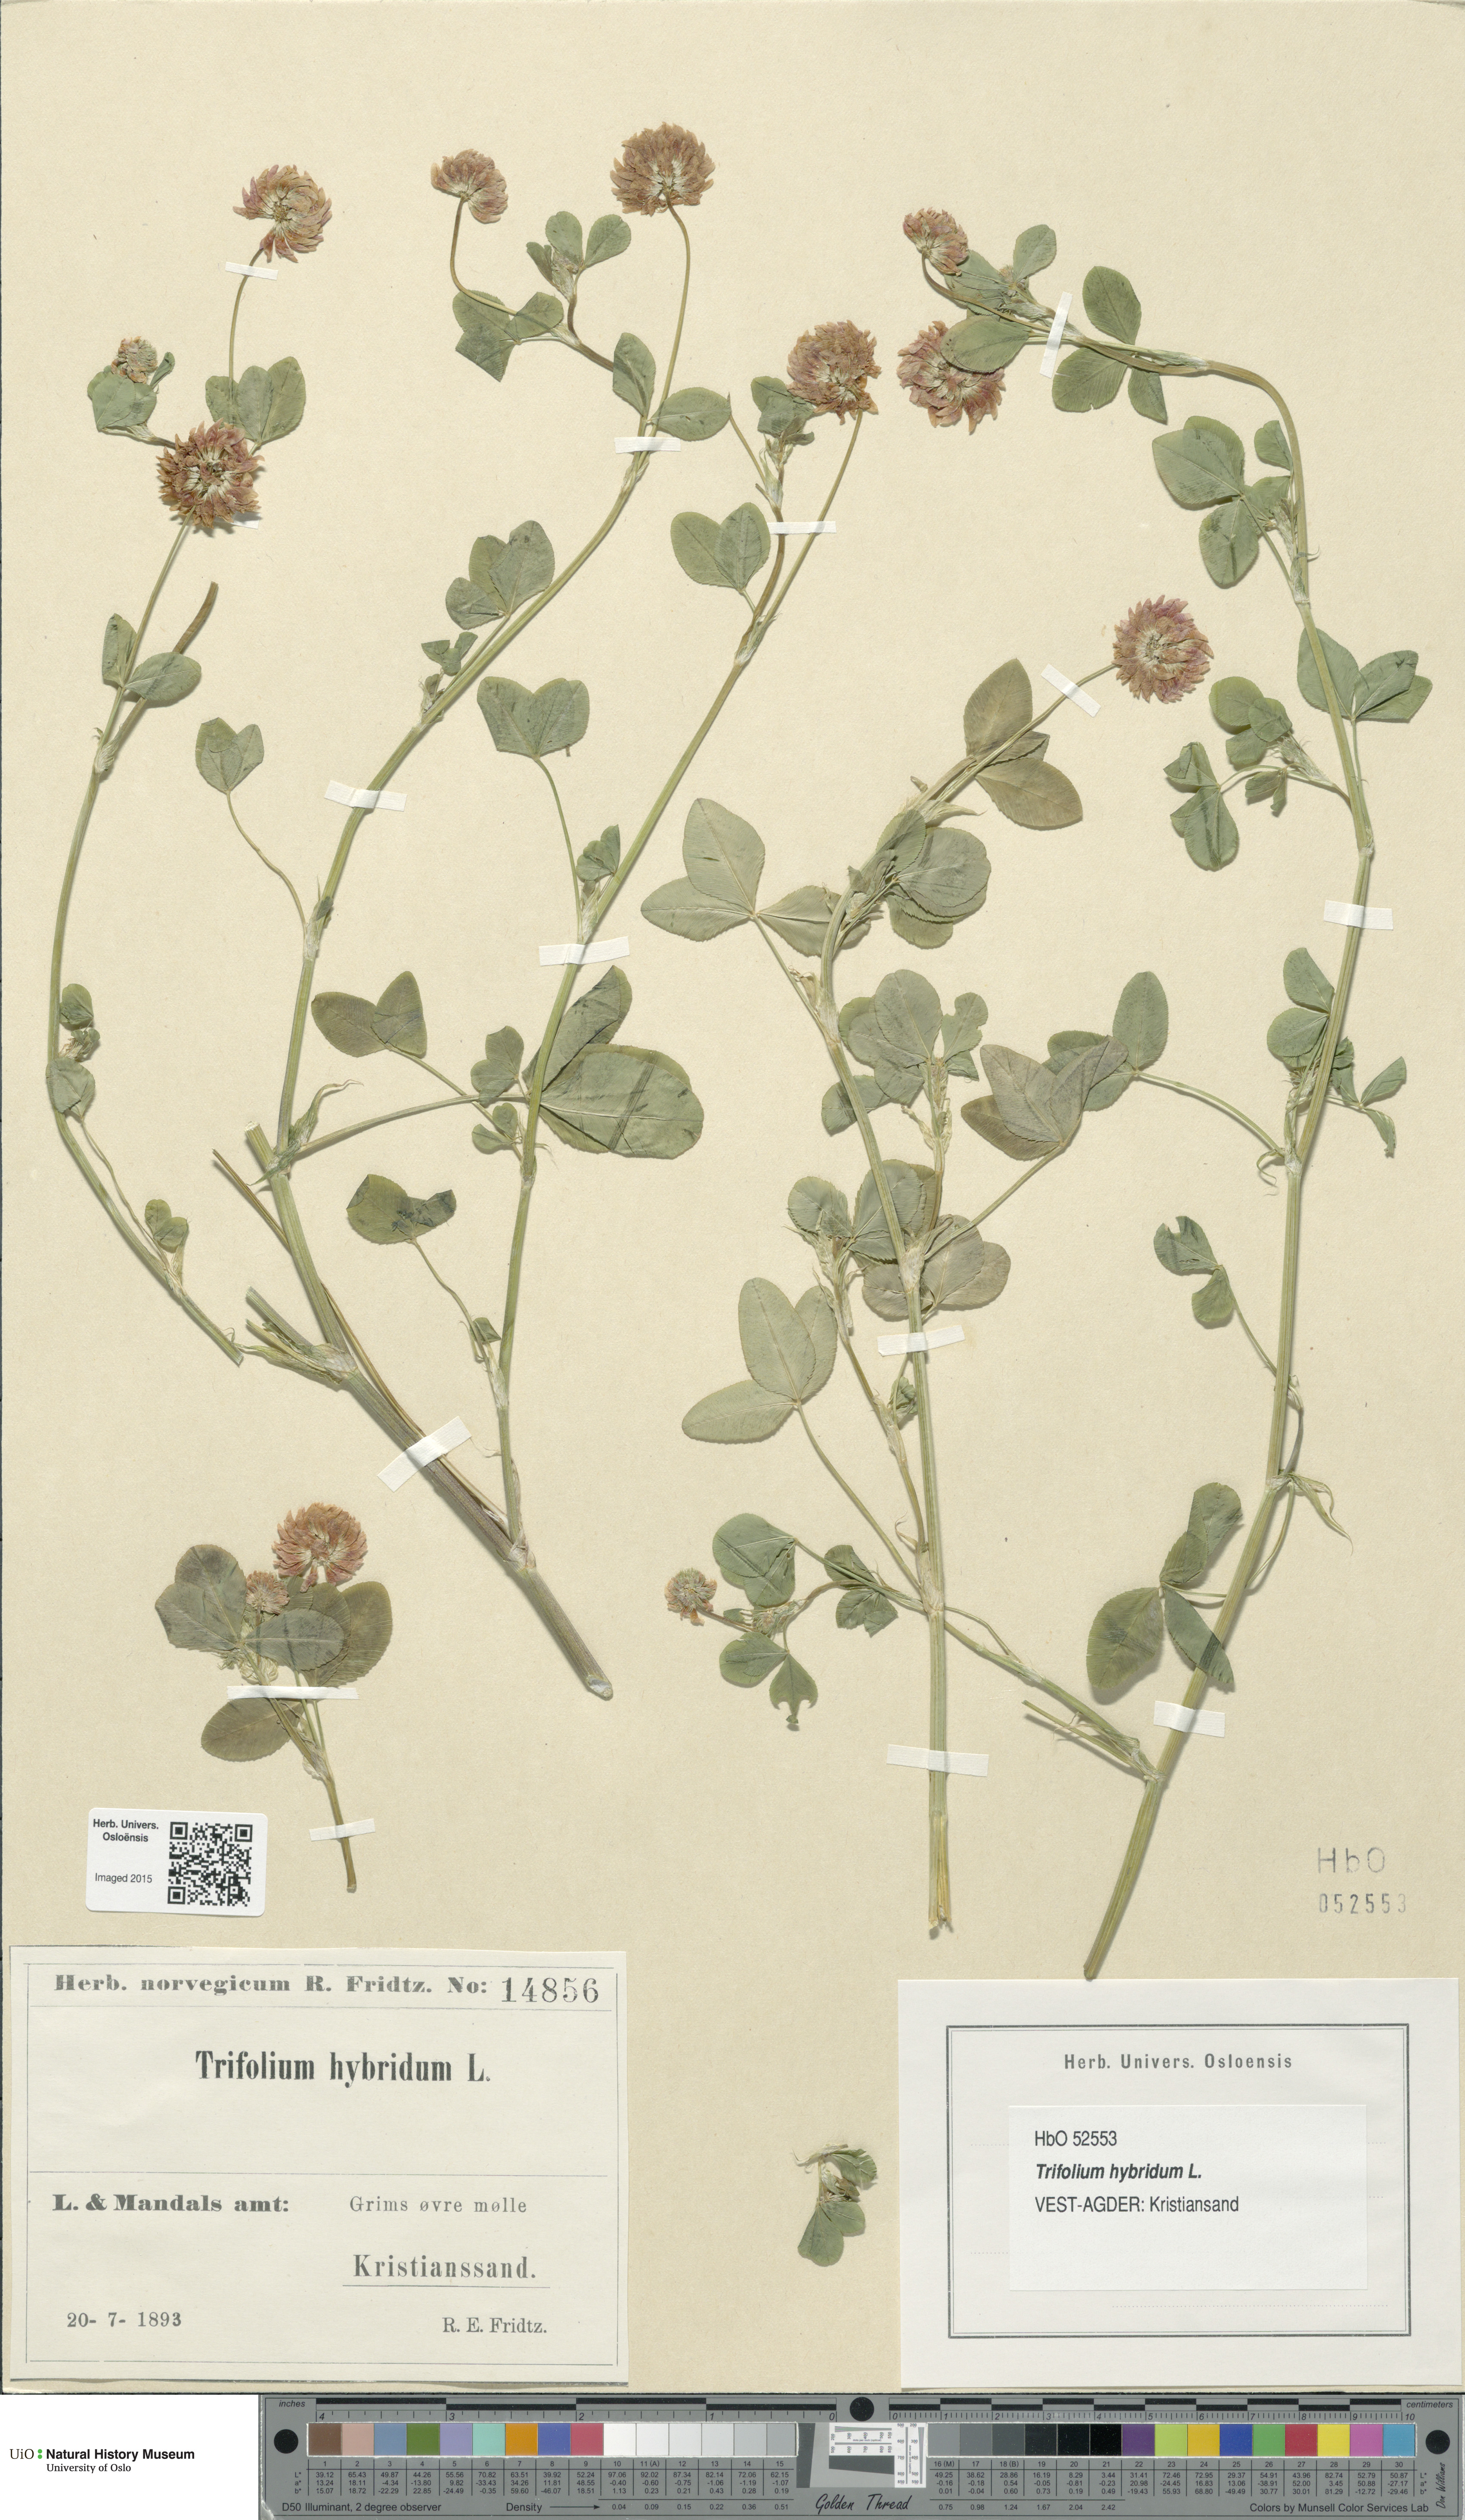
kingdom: Plantae
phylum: Tracheophyta
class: Magnoliopsida
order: Fabales
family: Fabaceae
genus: Trifolium
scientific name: Trifolium hybridum
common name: Alsike clover
